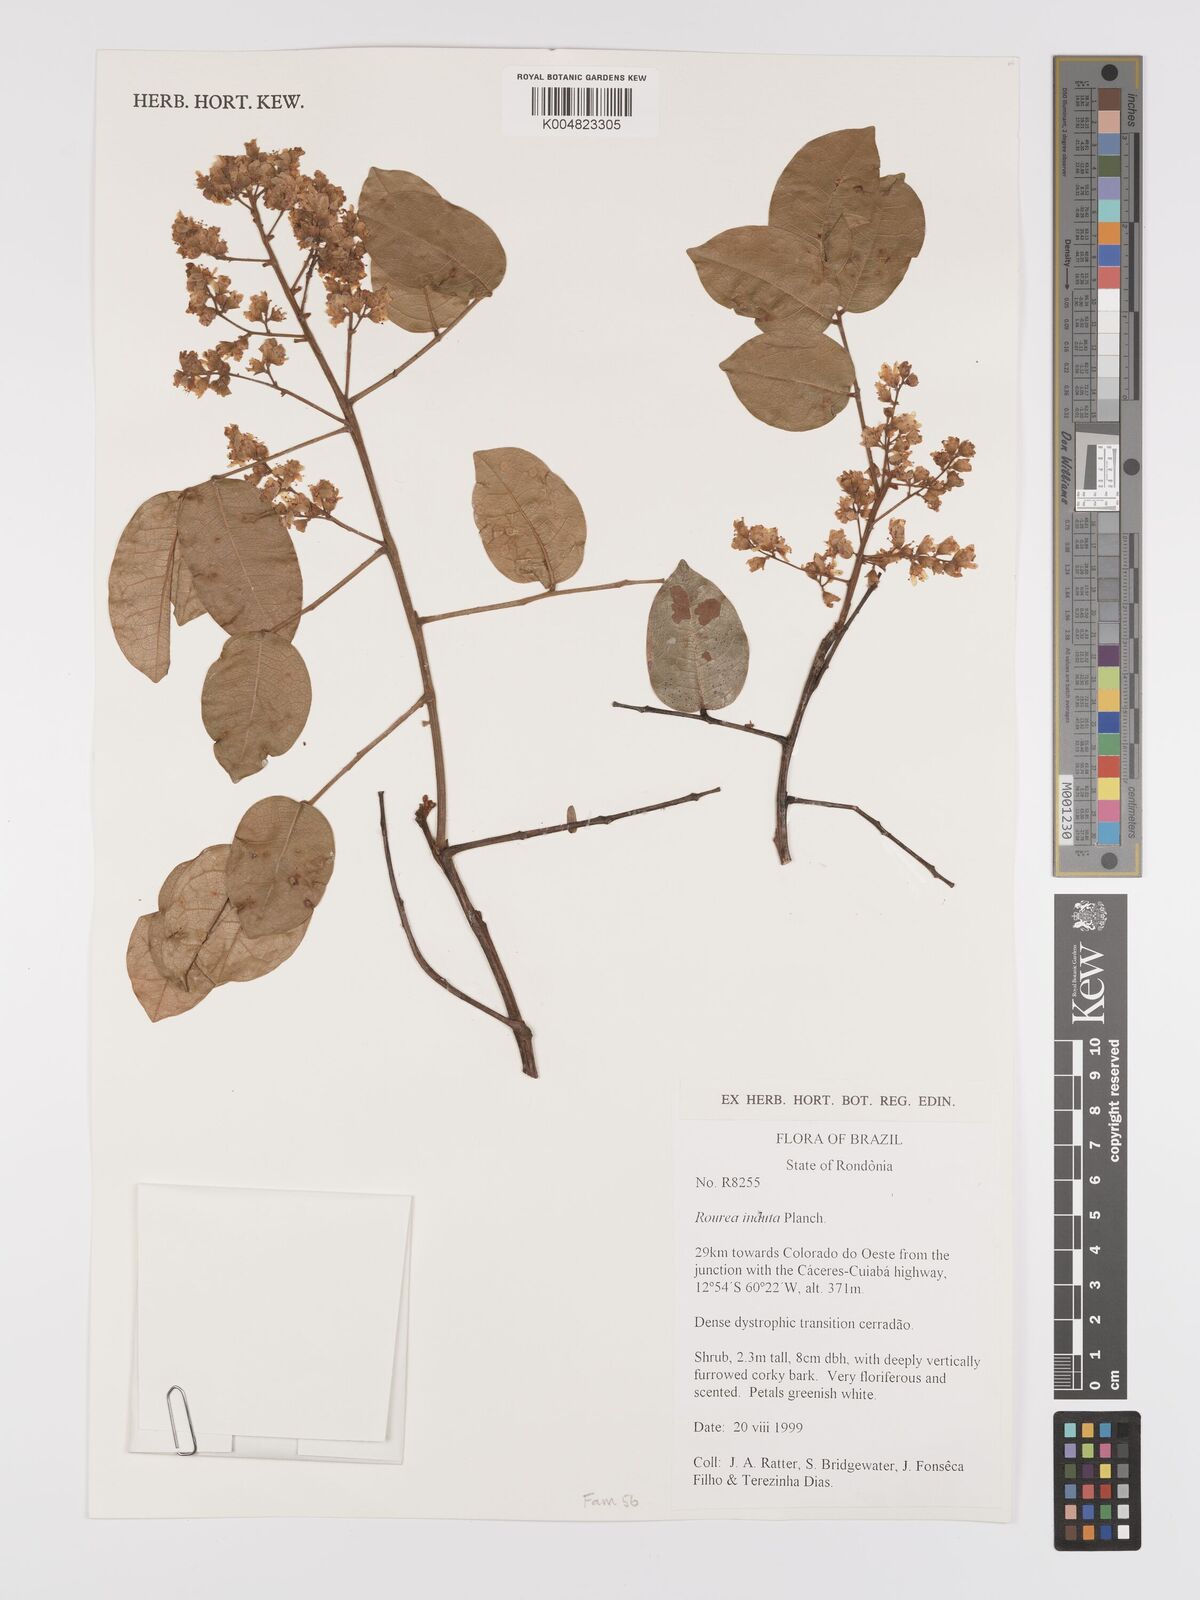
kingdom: Plantae
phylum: Tracheophyta
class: Magnoliopsida
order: Oxalidales
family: Connaraceae
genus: Rourea
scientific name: Rourea induta
